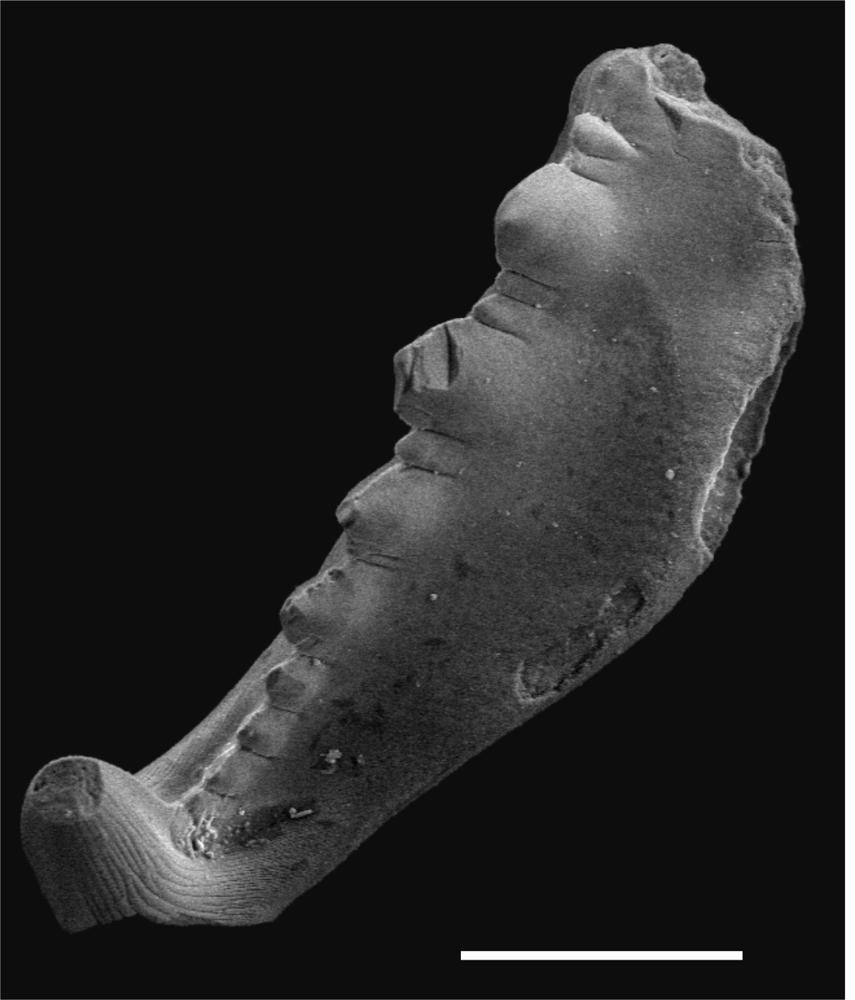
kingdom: Animalia
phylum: Chordata
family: Balognathidae
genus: Baltoniodus
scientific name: Baltoniodus
